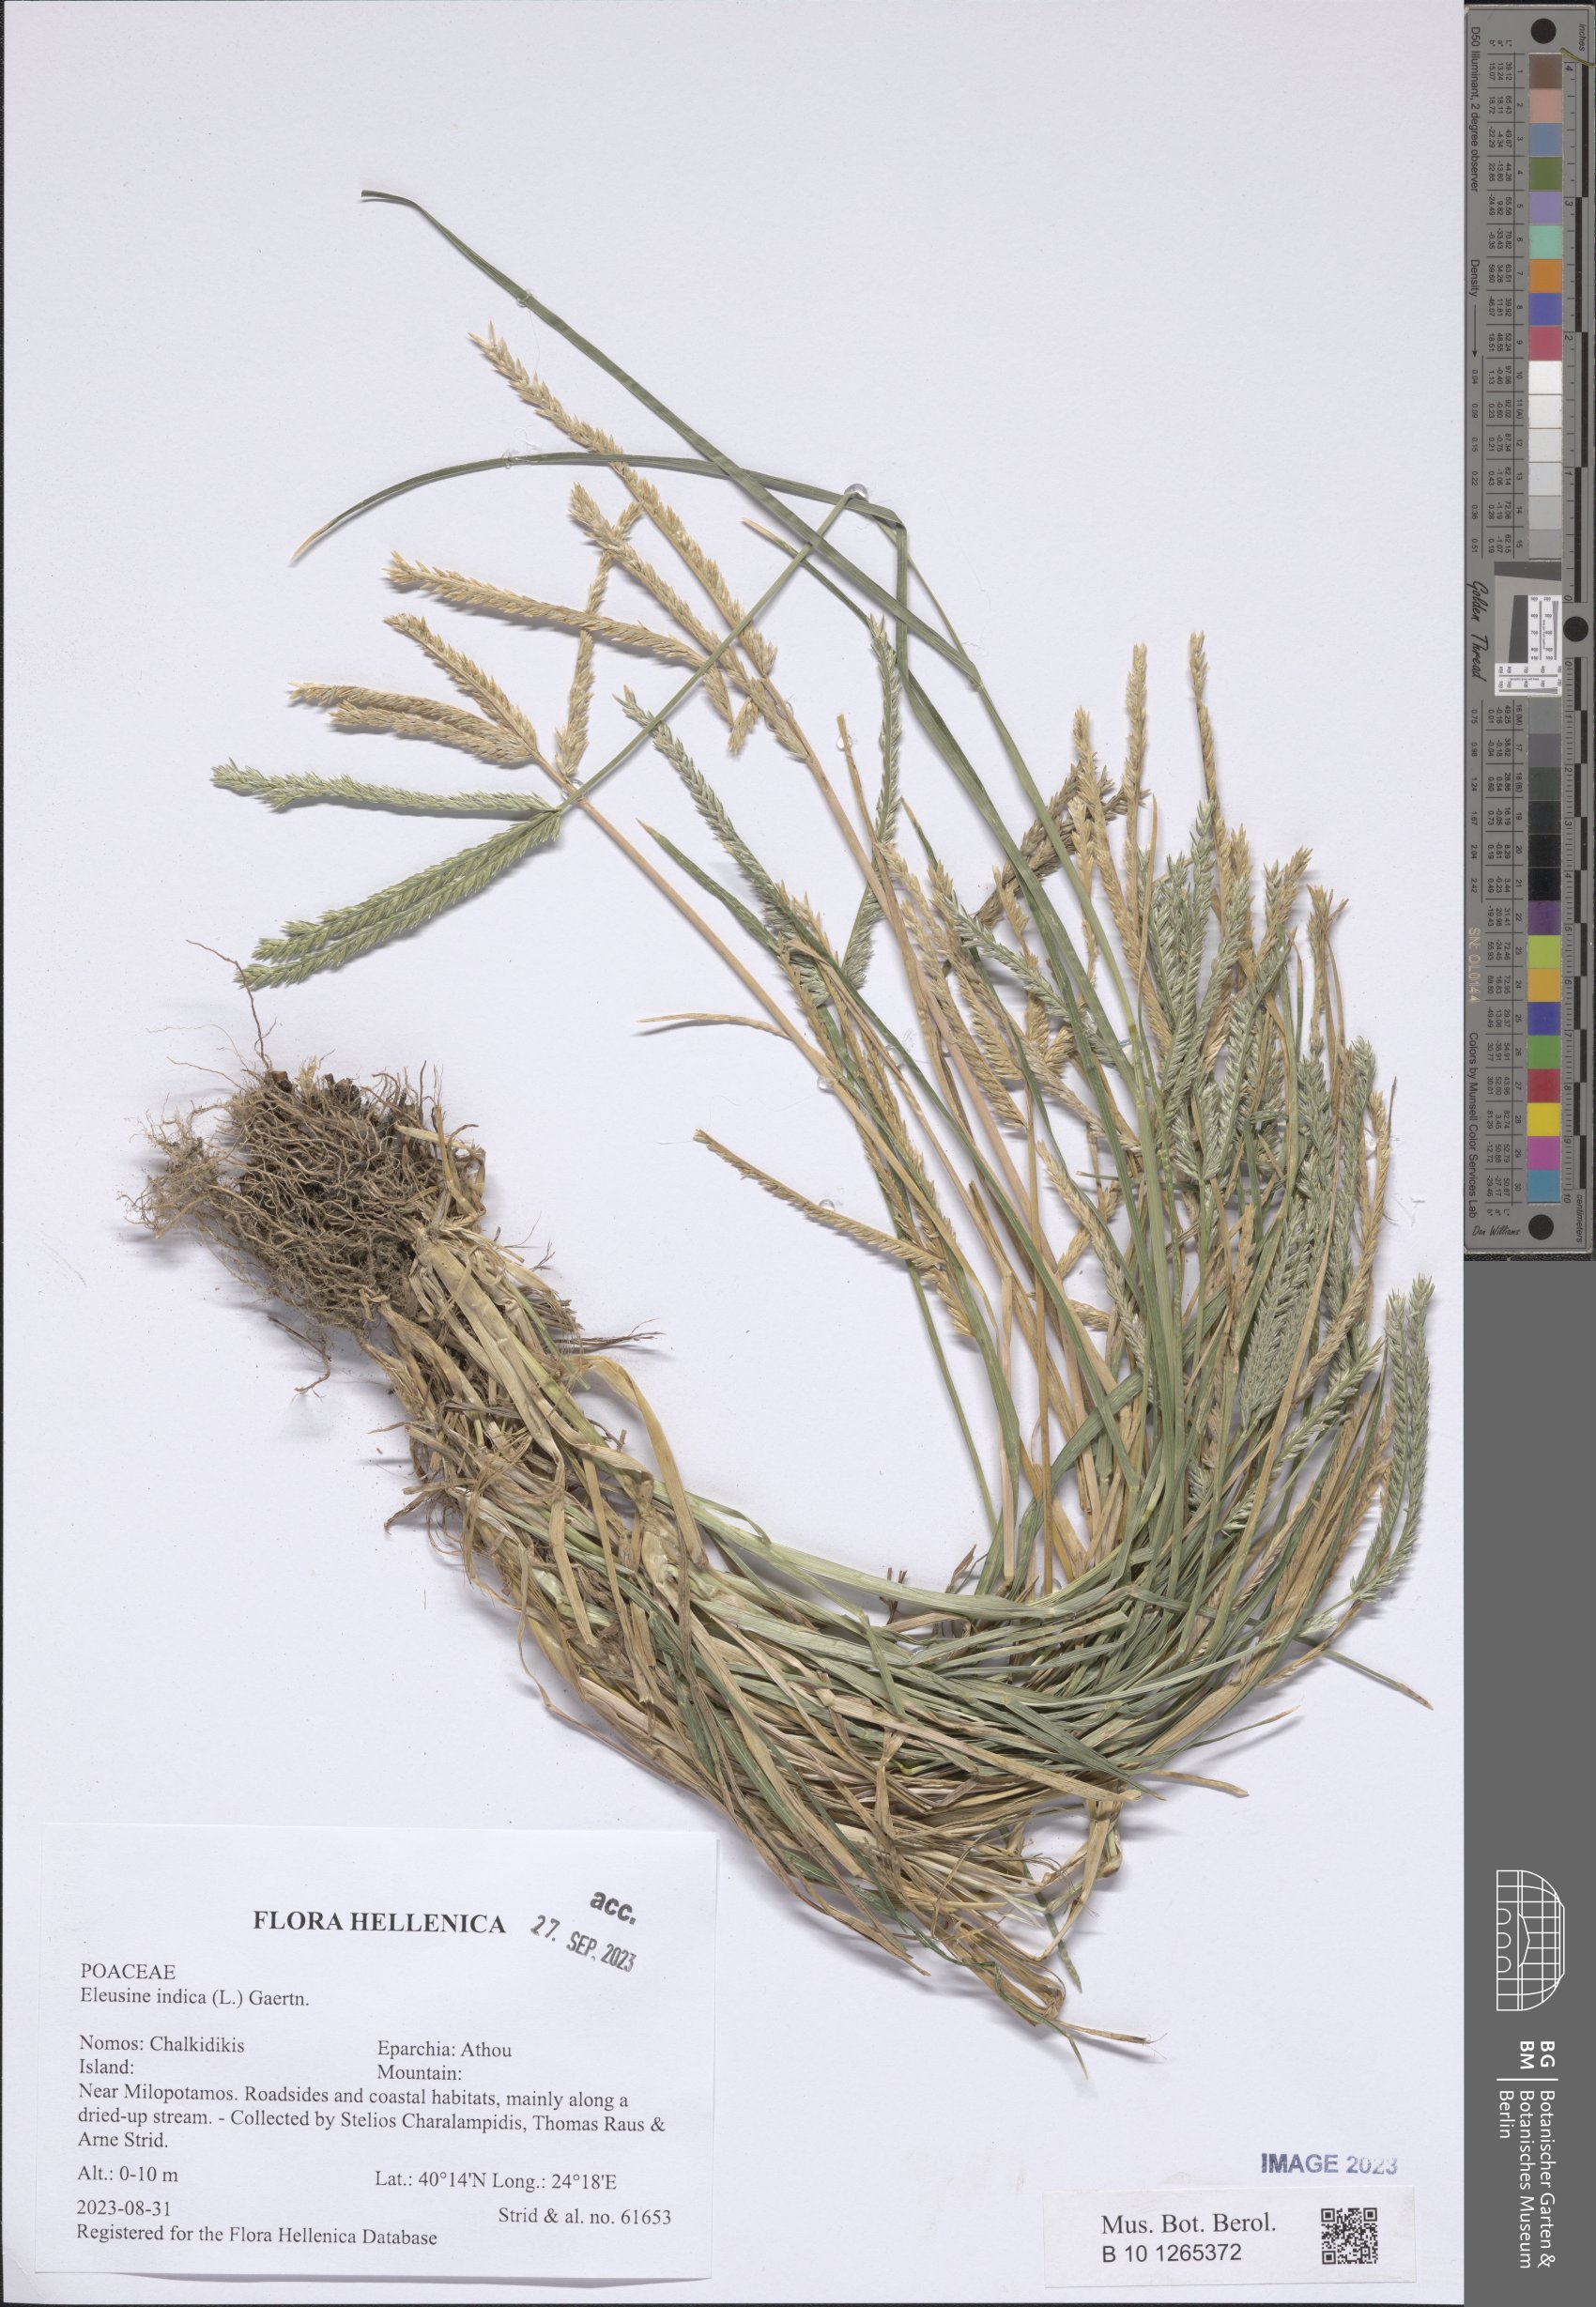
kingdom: Plantae
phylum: Tracheophyta
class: Liliopsida
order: Poales
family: Poaceae
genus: Eleusine
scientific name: Eleusine indica
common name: Yard-grass
